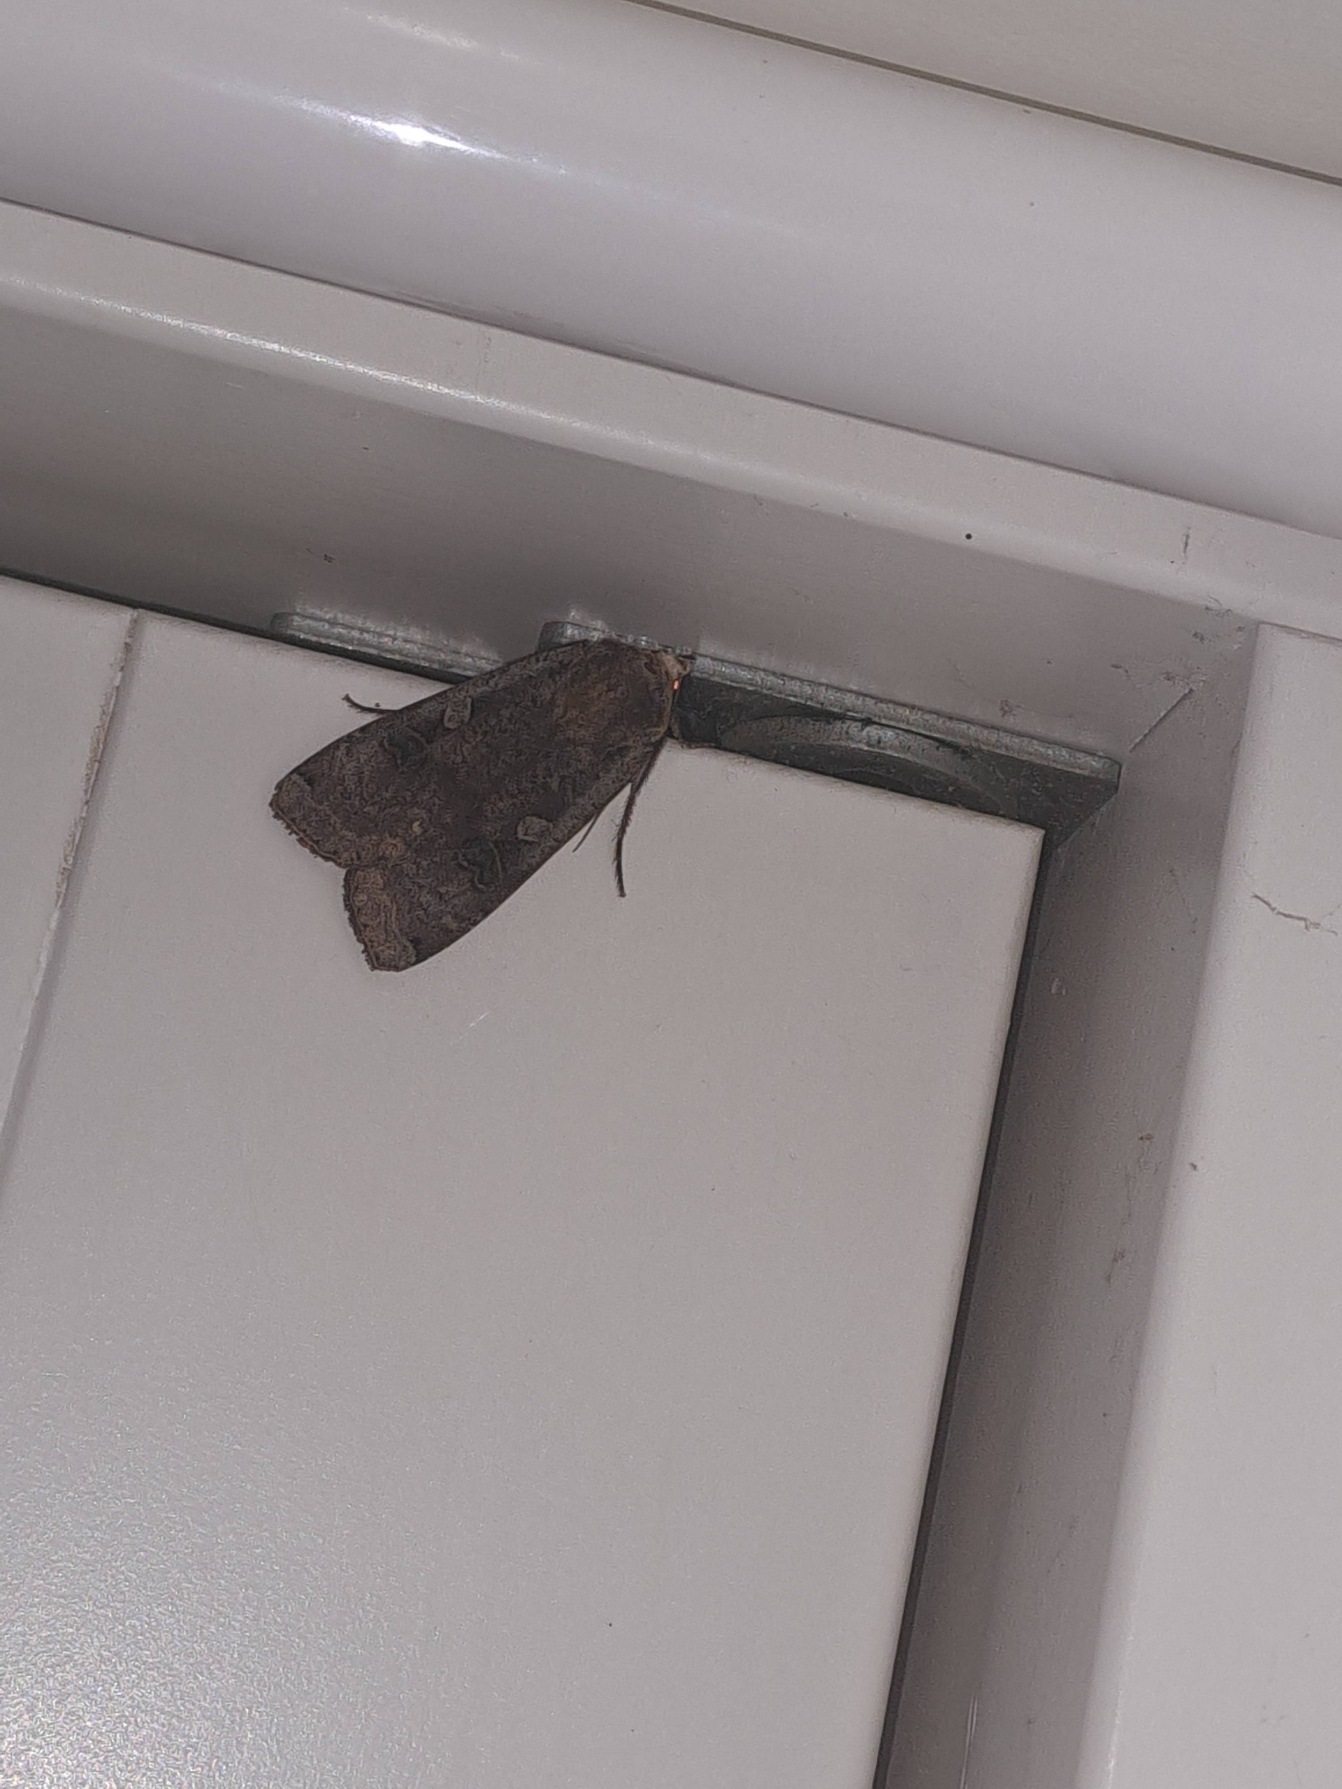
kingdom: Animalia
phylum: Arthropoda
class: Insecta
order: Lepidoptera
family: Noctuidae
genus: Noctua
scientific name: Noctua pronuba
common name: Stor smutugle
